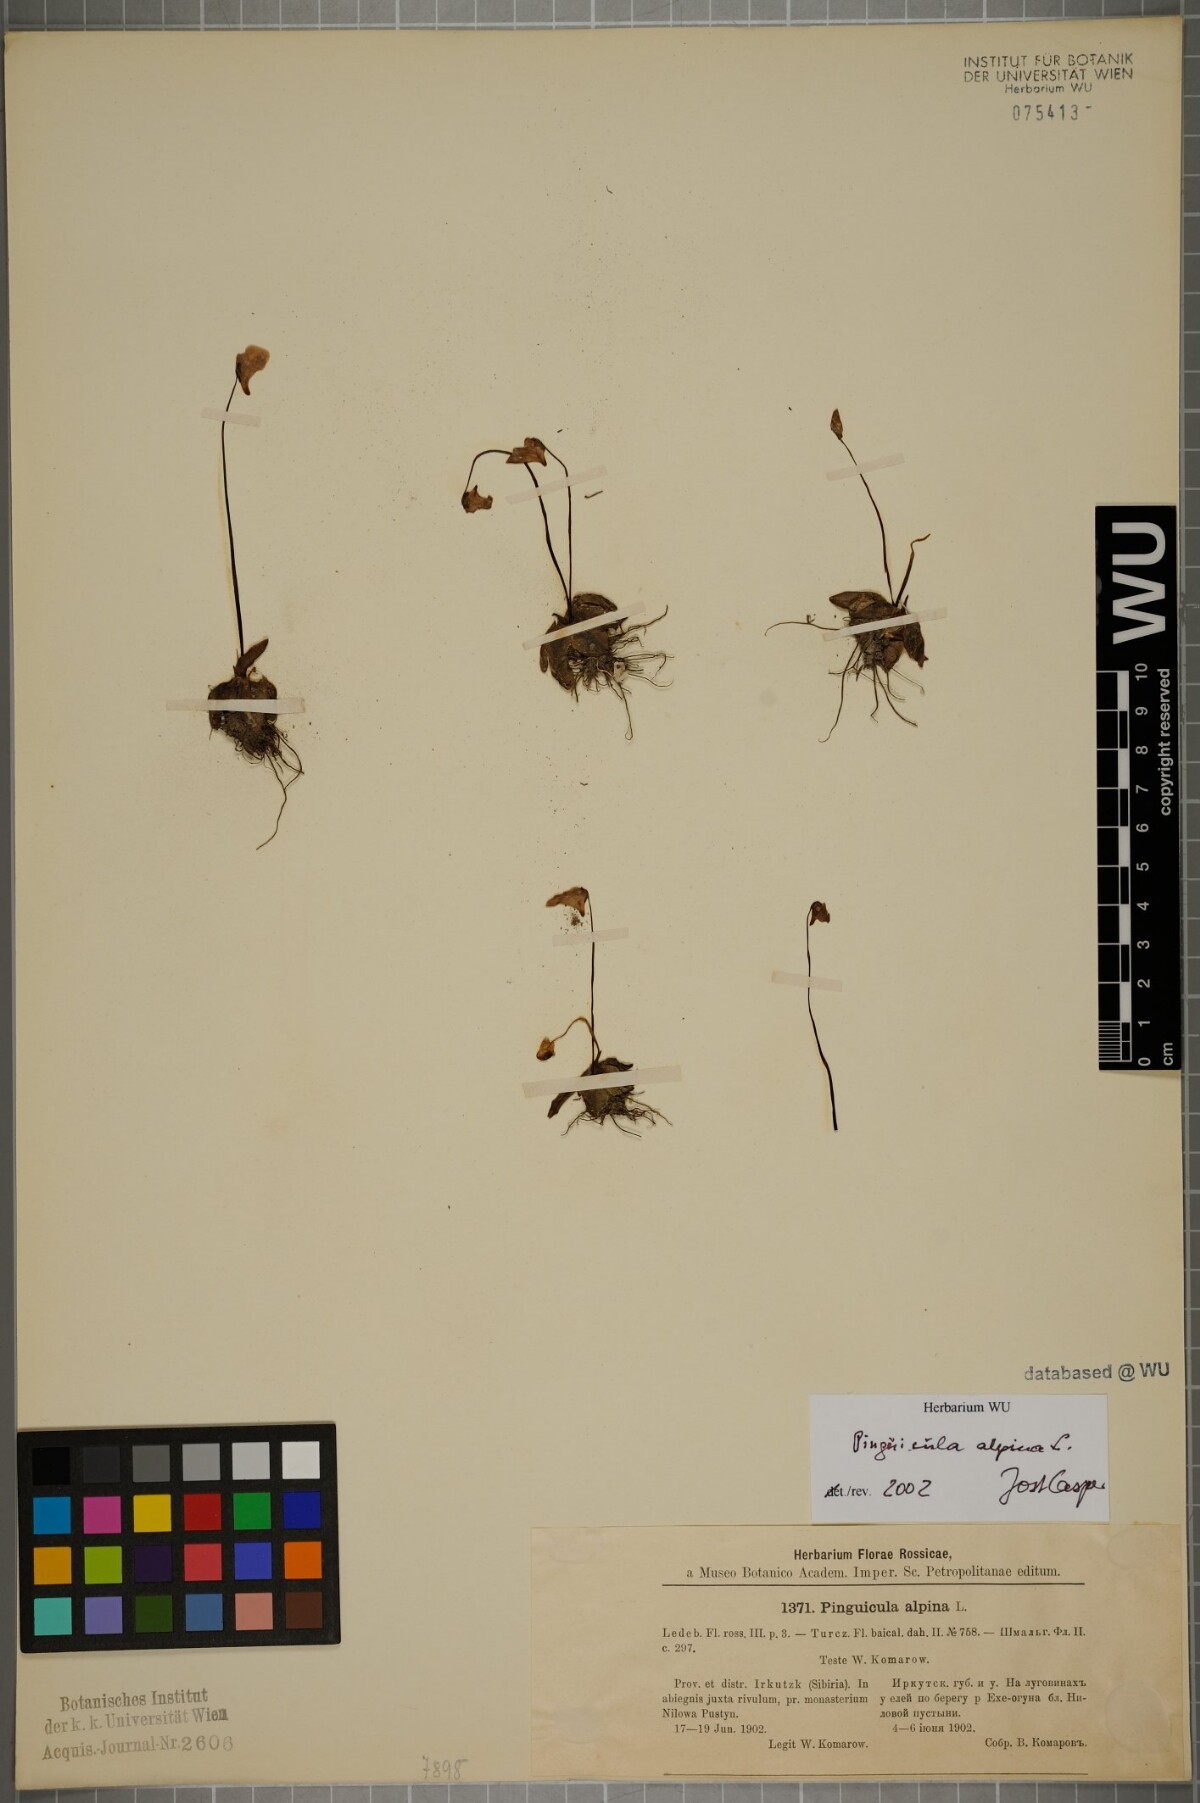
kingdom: Plantae
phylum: Tracheophyta
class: Magnoliopsida
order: Lamiales
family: Lentibulariaceae
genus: Pinguicula
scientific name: Pinguicula alpina
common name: Alpine butterwort
